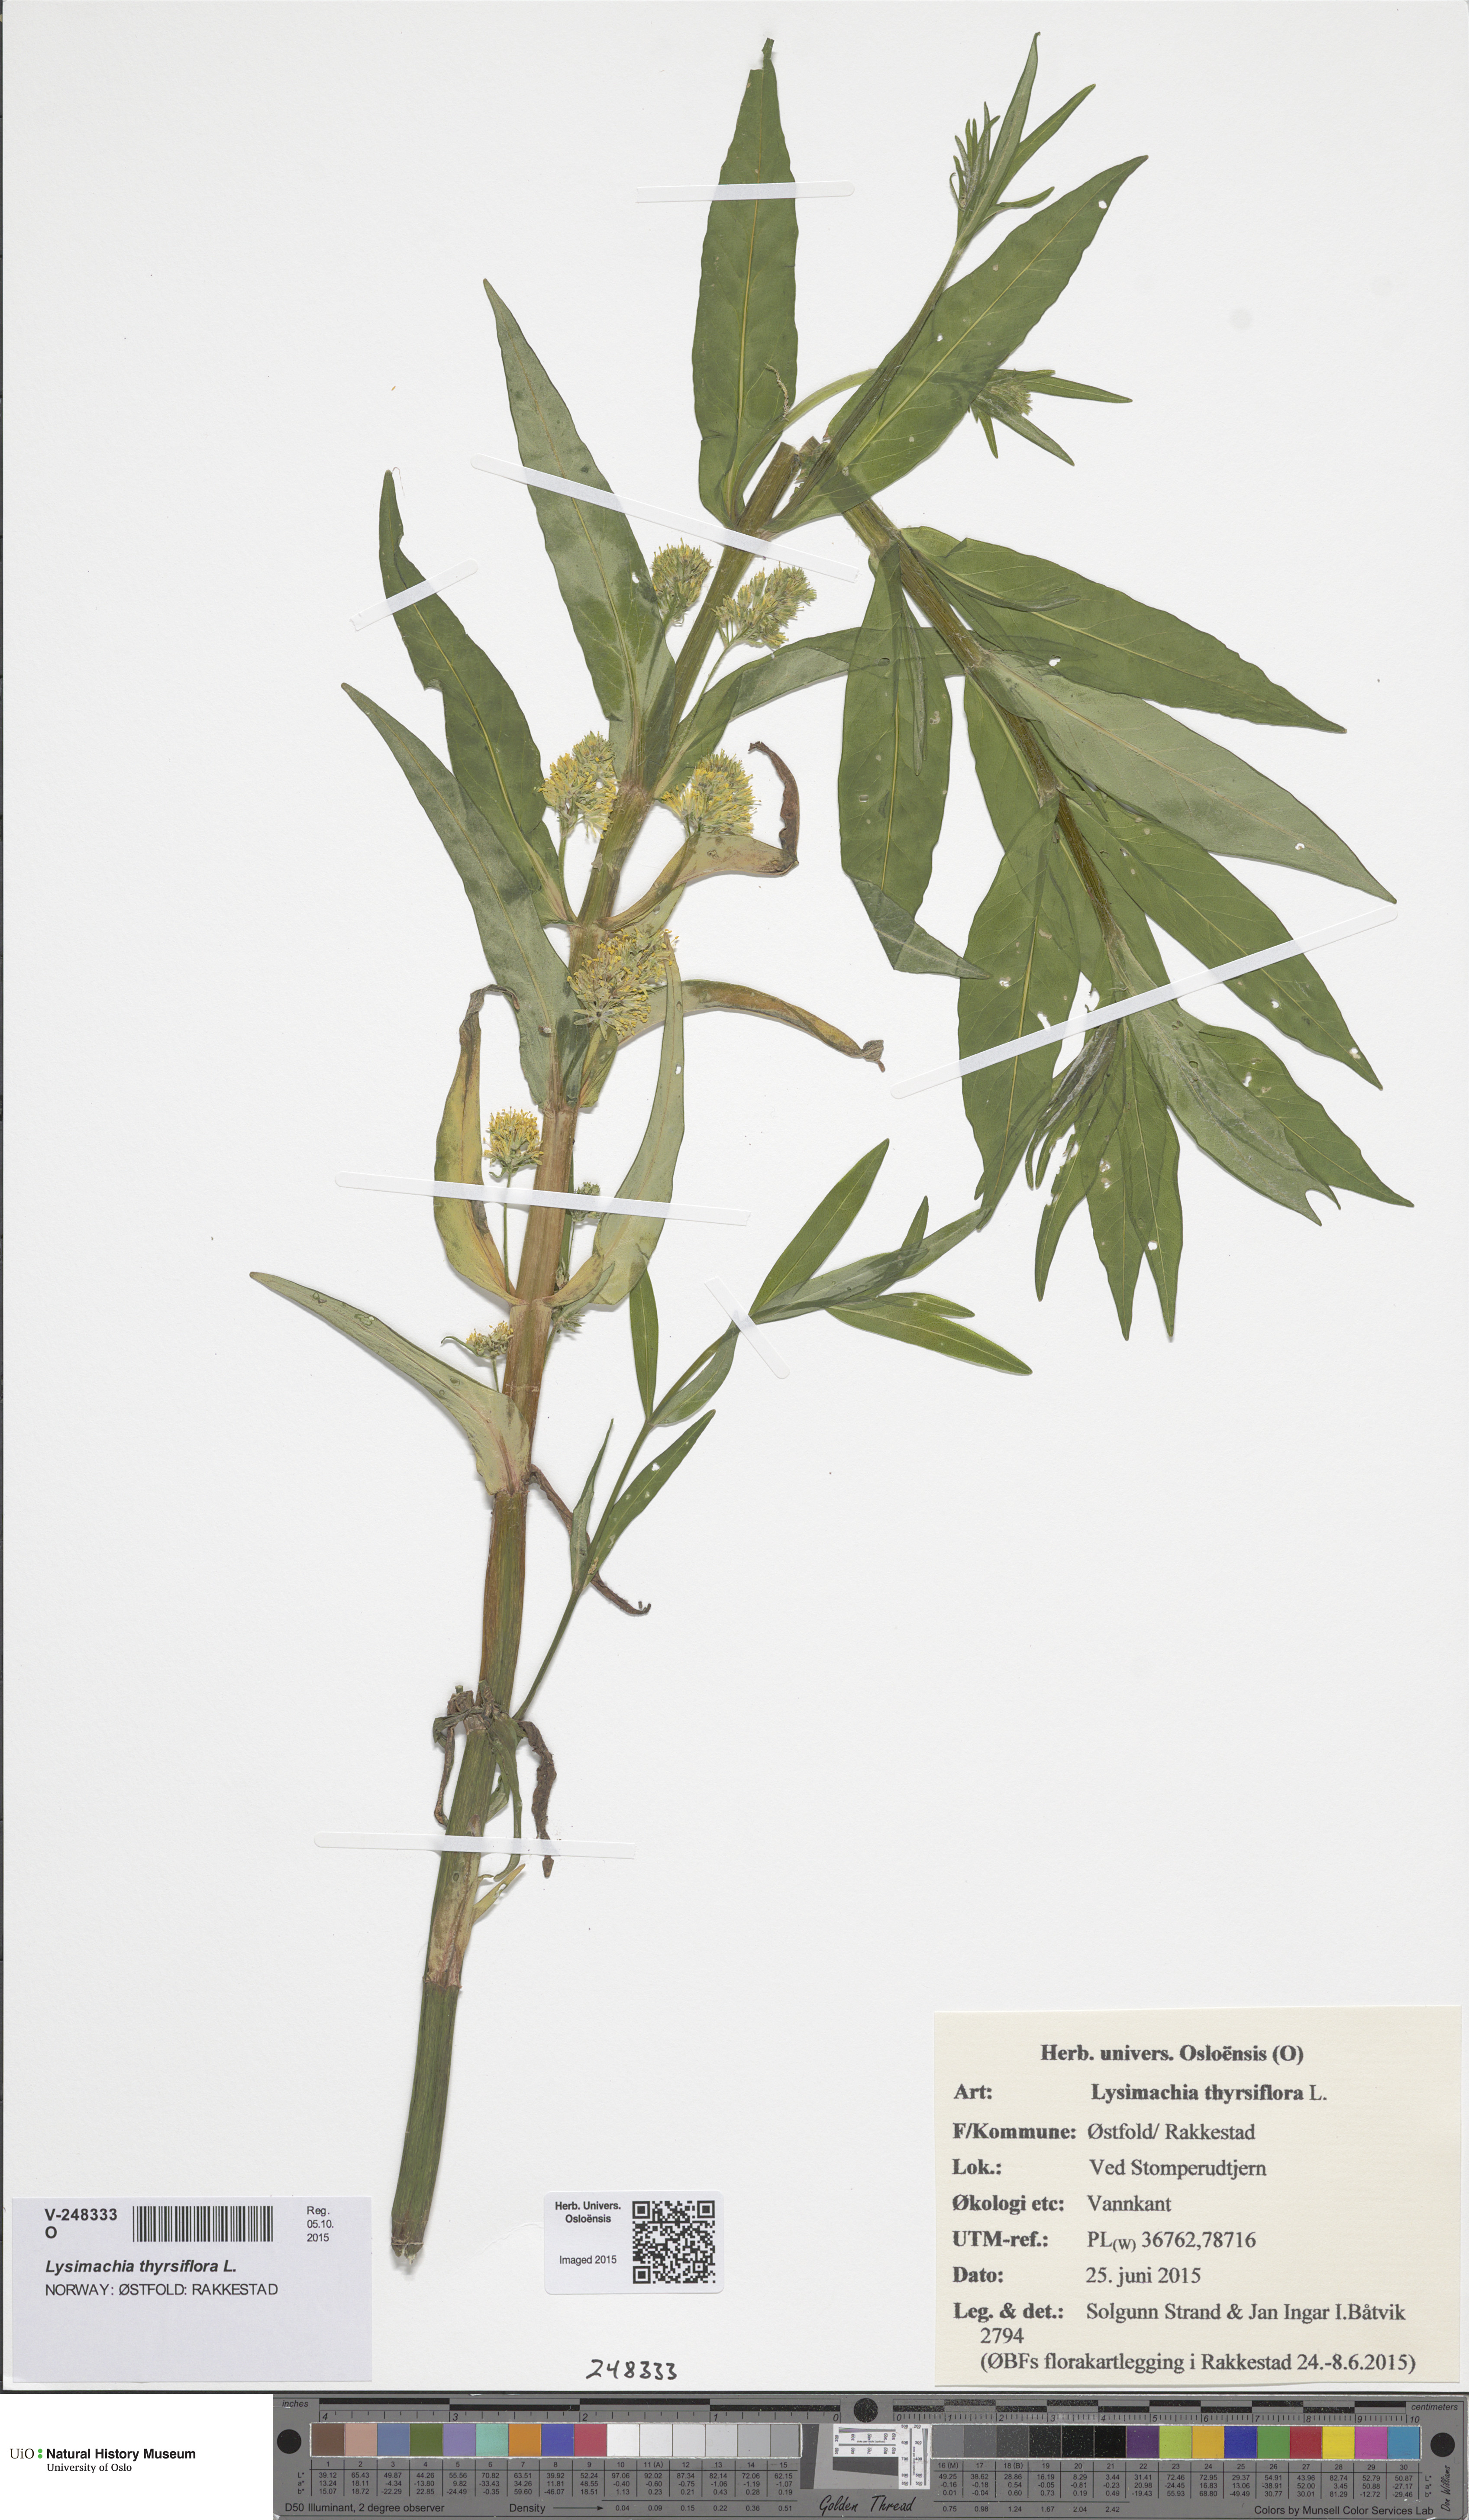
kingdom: Plantae
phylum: Tracheophyta
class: Magnoliopsida
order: Ericales
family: Primulaceae
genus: Lysimachia
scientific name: Lysimachia thyrsiflora
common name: Tufted loosestrife
